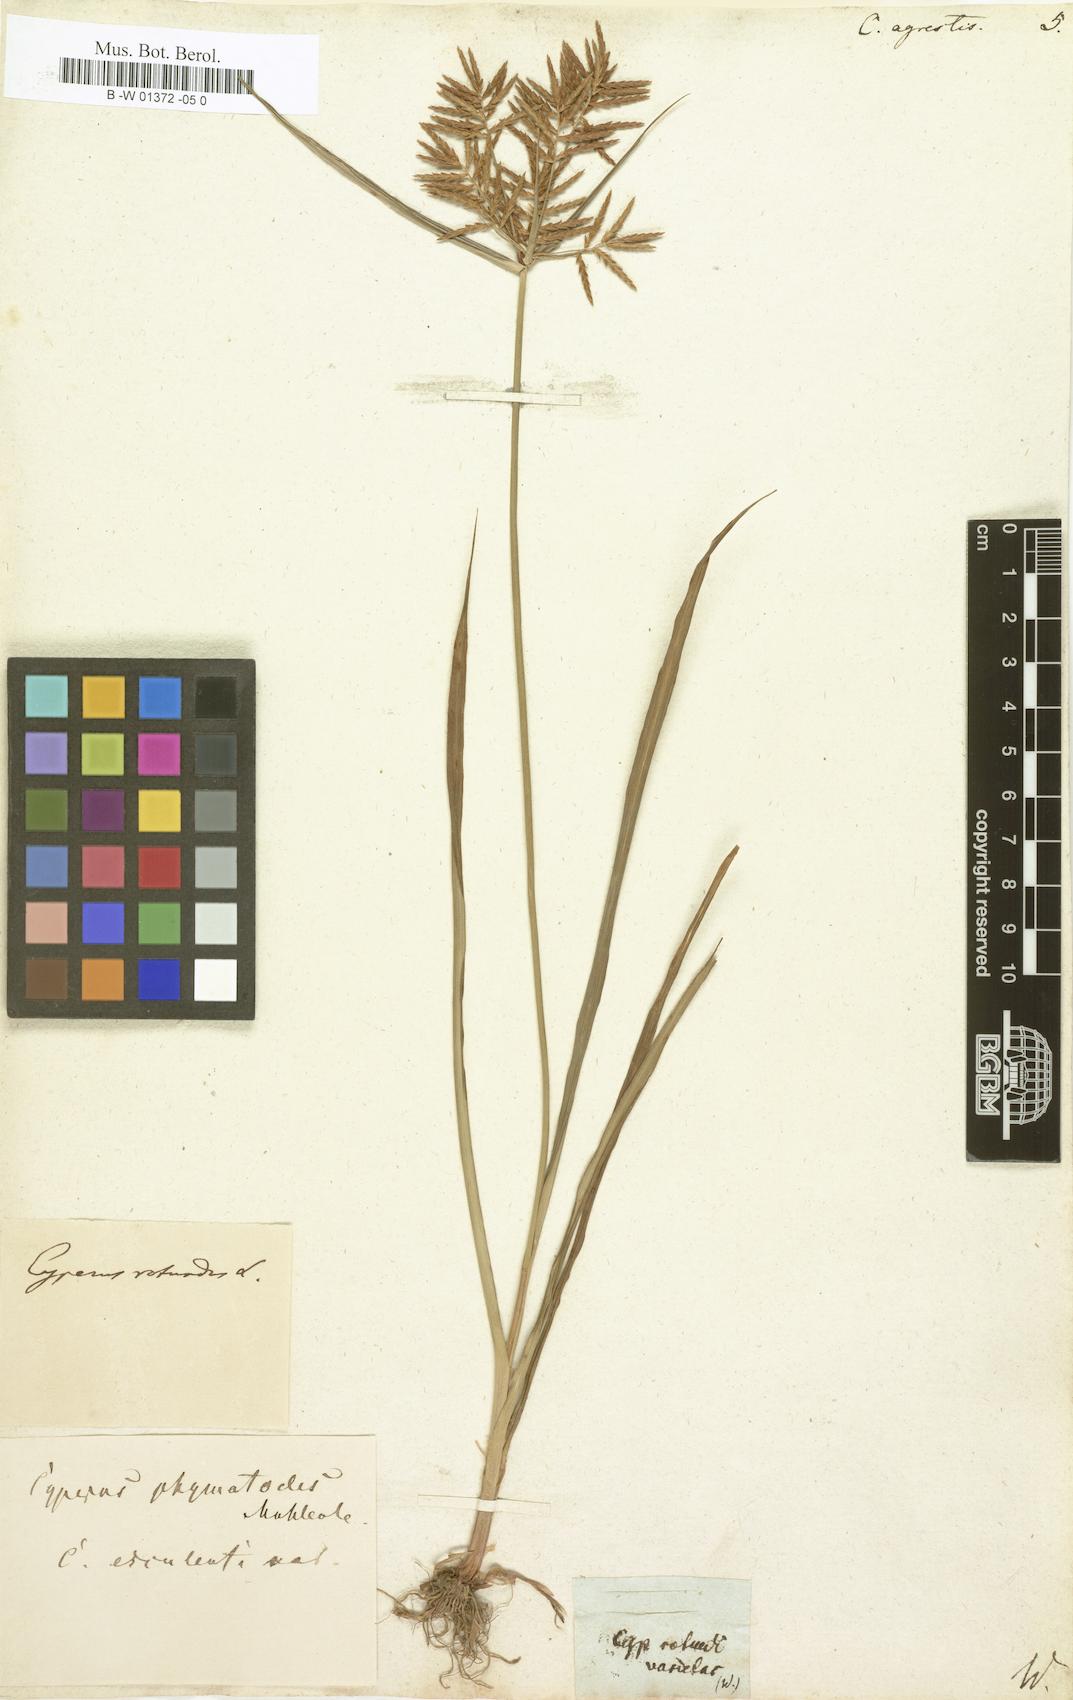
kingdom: Plantae
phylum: Tracheophyta
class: Liliopsida
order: Poales
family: Cyperaceae
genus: Cyperus
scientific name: Cyperus rotundus
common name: Nutgrass
